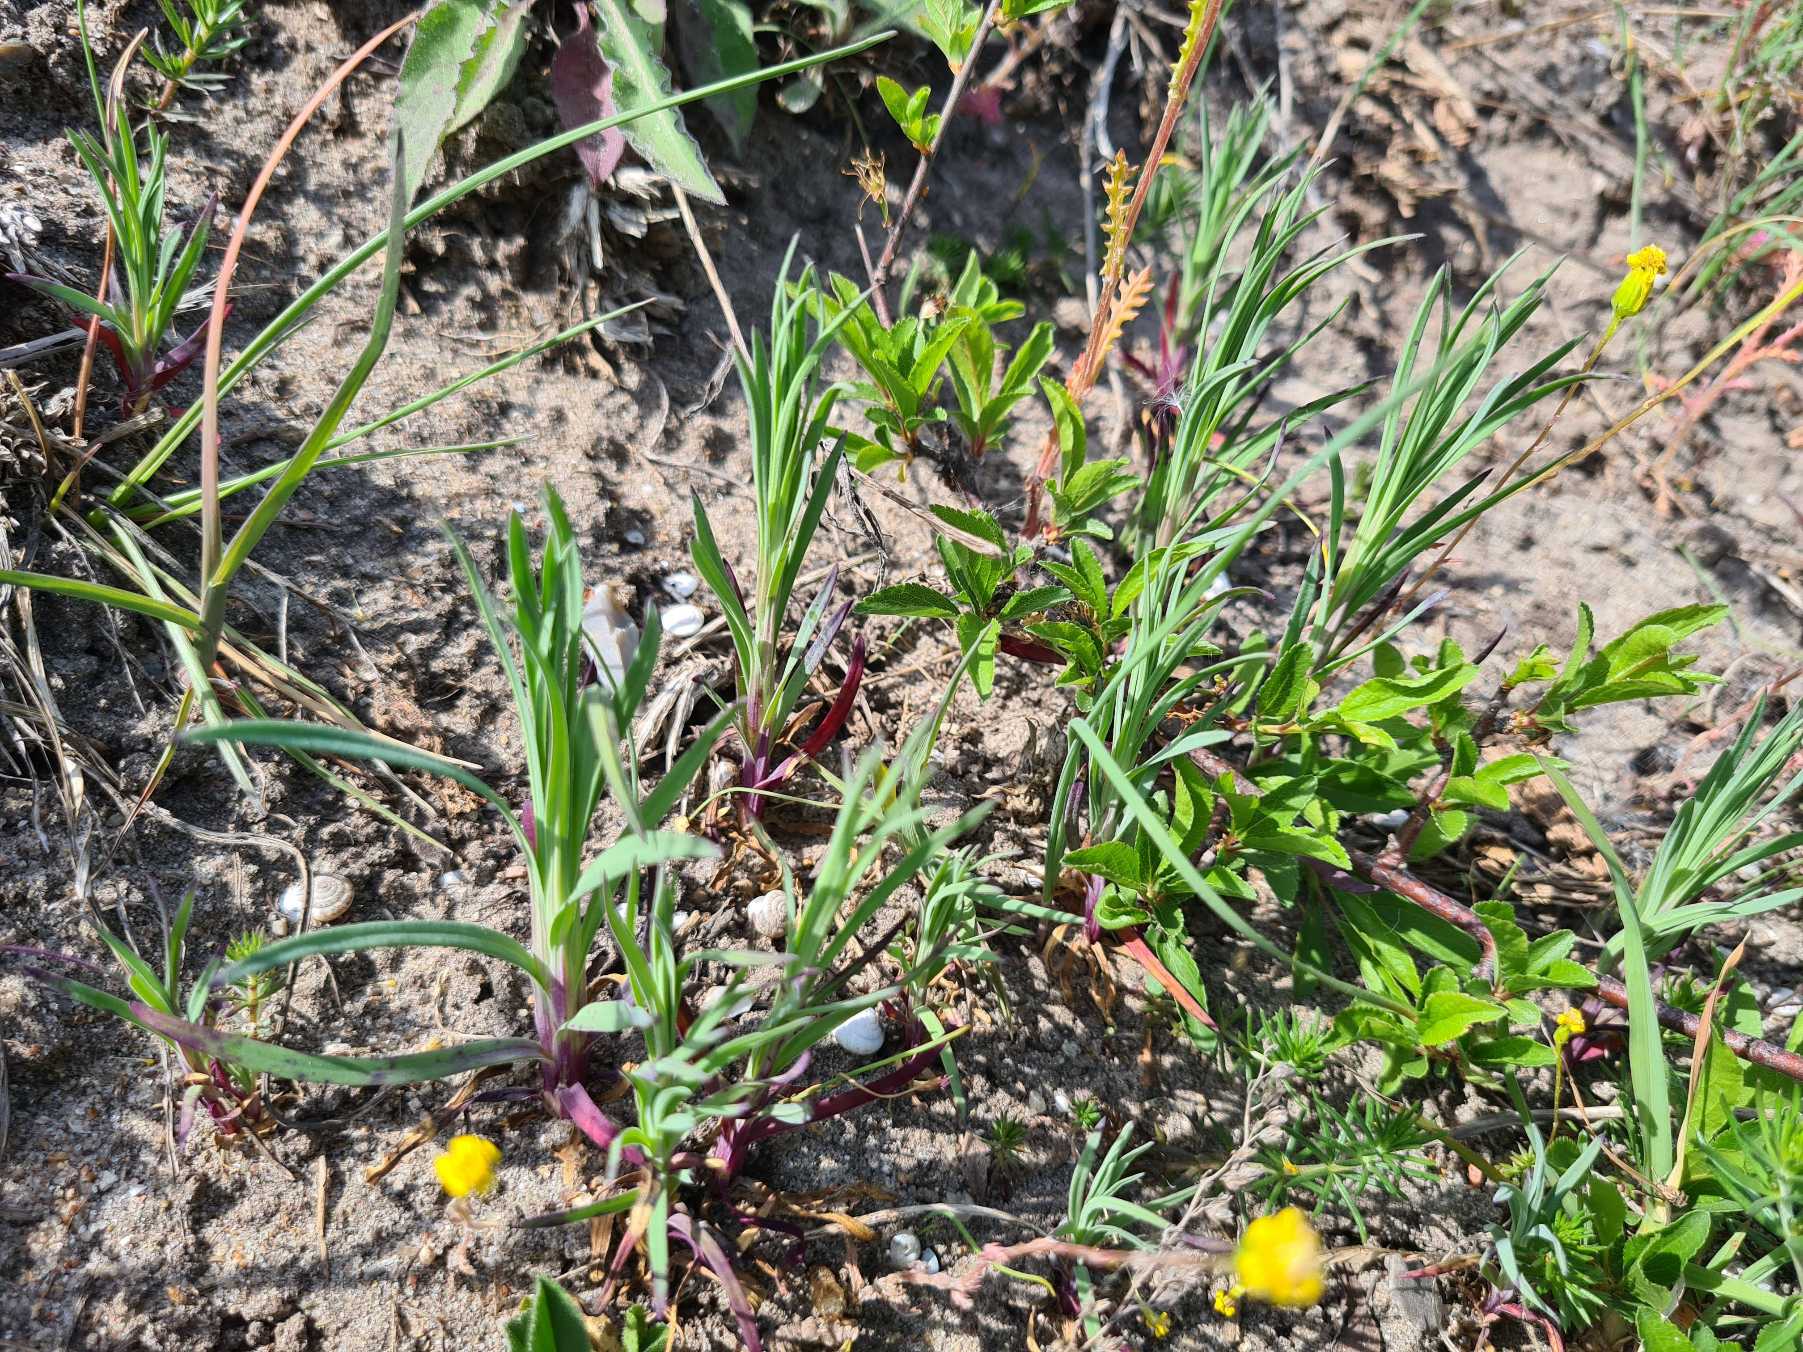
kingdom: Plantae
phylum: Tracheophyta
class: Magnoliopsida
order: Caryophyllales
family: Caryophyllaceae
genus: Petrorhagia
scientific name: Petrorhagia prolifera
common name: Knopnellike
